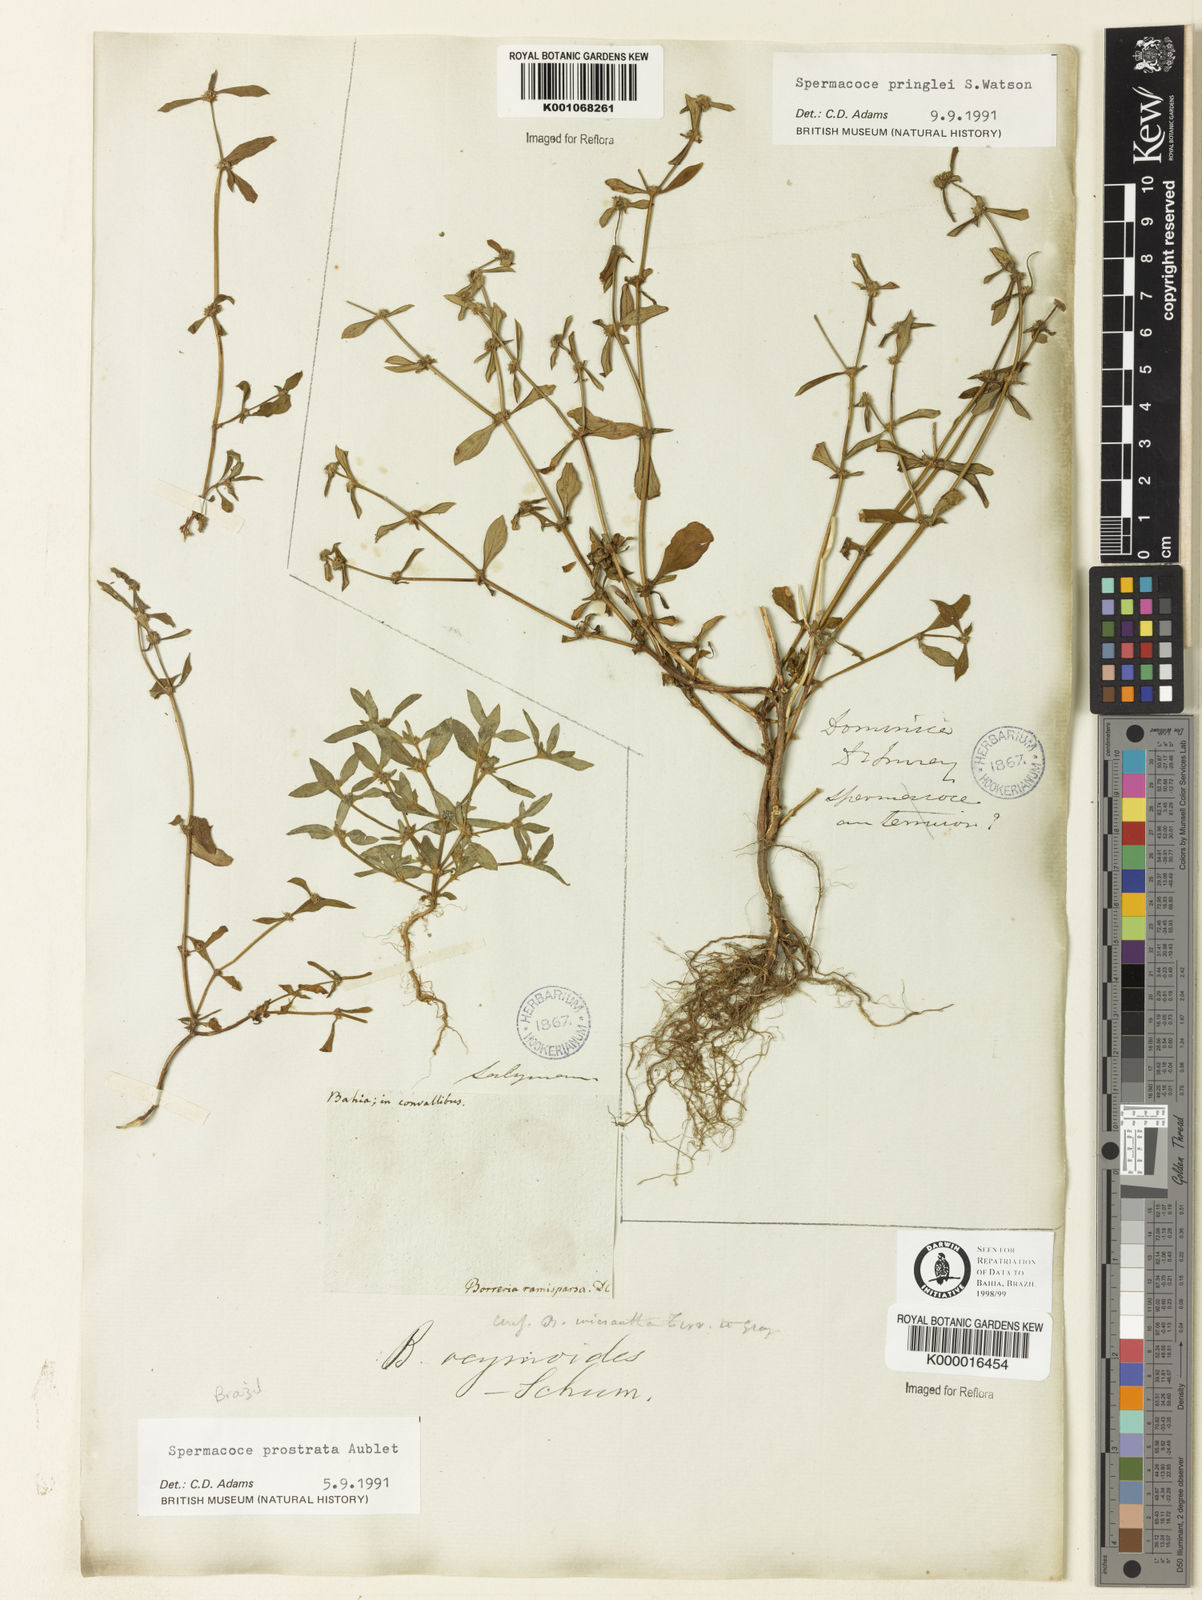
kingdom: Plantae
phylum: Tracheophyta
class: Magnoliopsida
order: Gentianales
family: Rubiaceae
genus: Spermacoce
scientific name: Spermacoce
